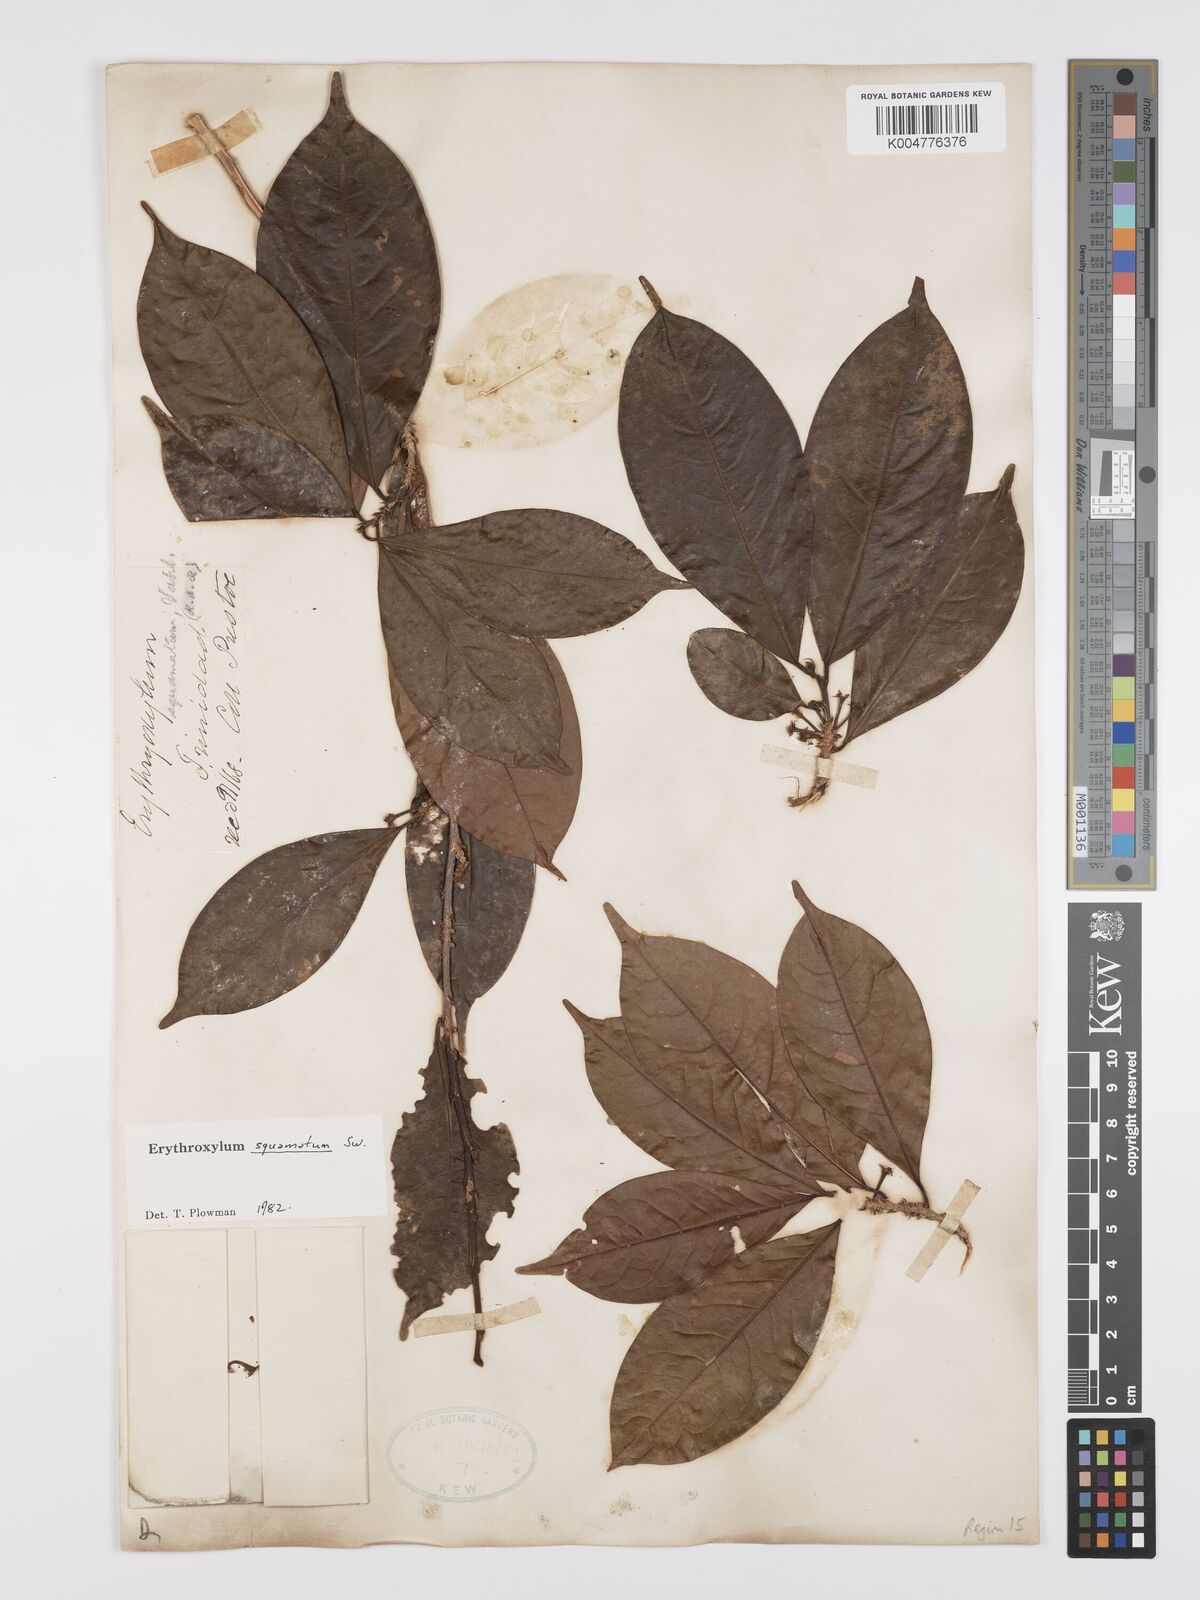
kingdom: Plantae
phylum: Tracheophyta
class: Magnoliopsida
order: Malpighiales
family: Erythroxylaceae
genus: Erythroxylum
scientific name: Erythroxylum squamatum
